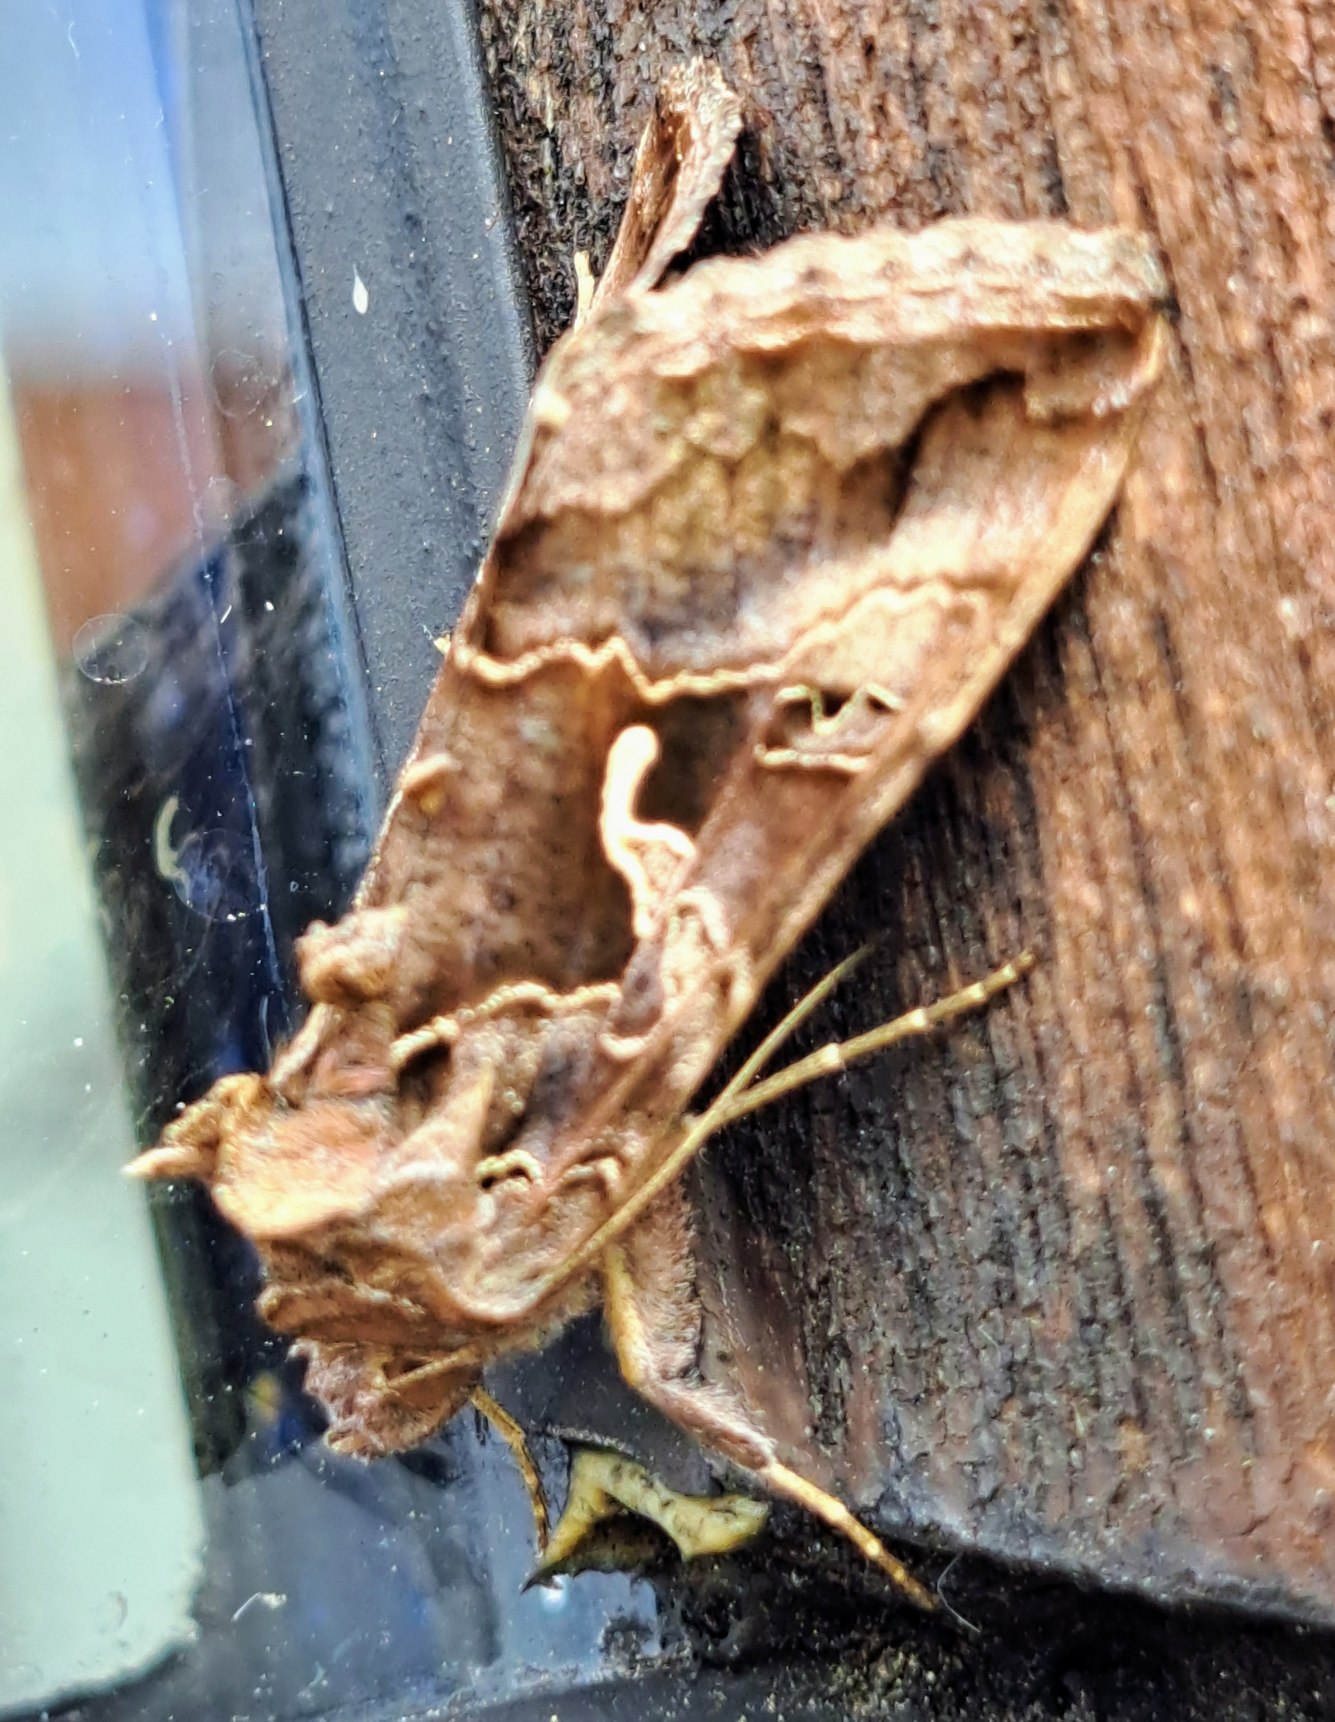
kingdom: Animalia
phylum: Arthropoda
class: Insecta
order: Lepidoptera
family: Noctuidae
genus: Autographa
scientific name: Autographa gamma
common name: Gammaugle
